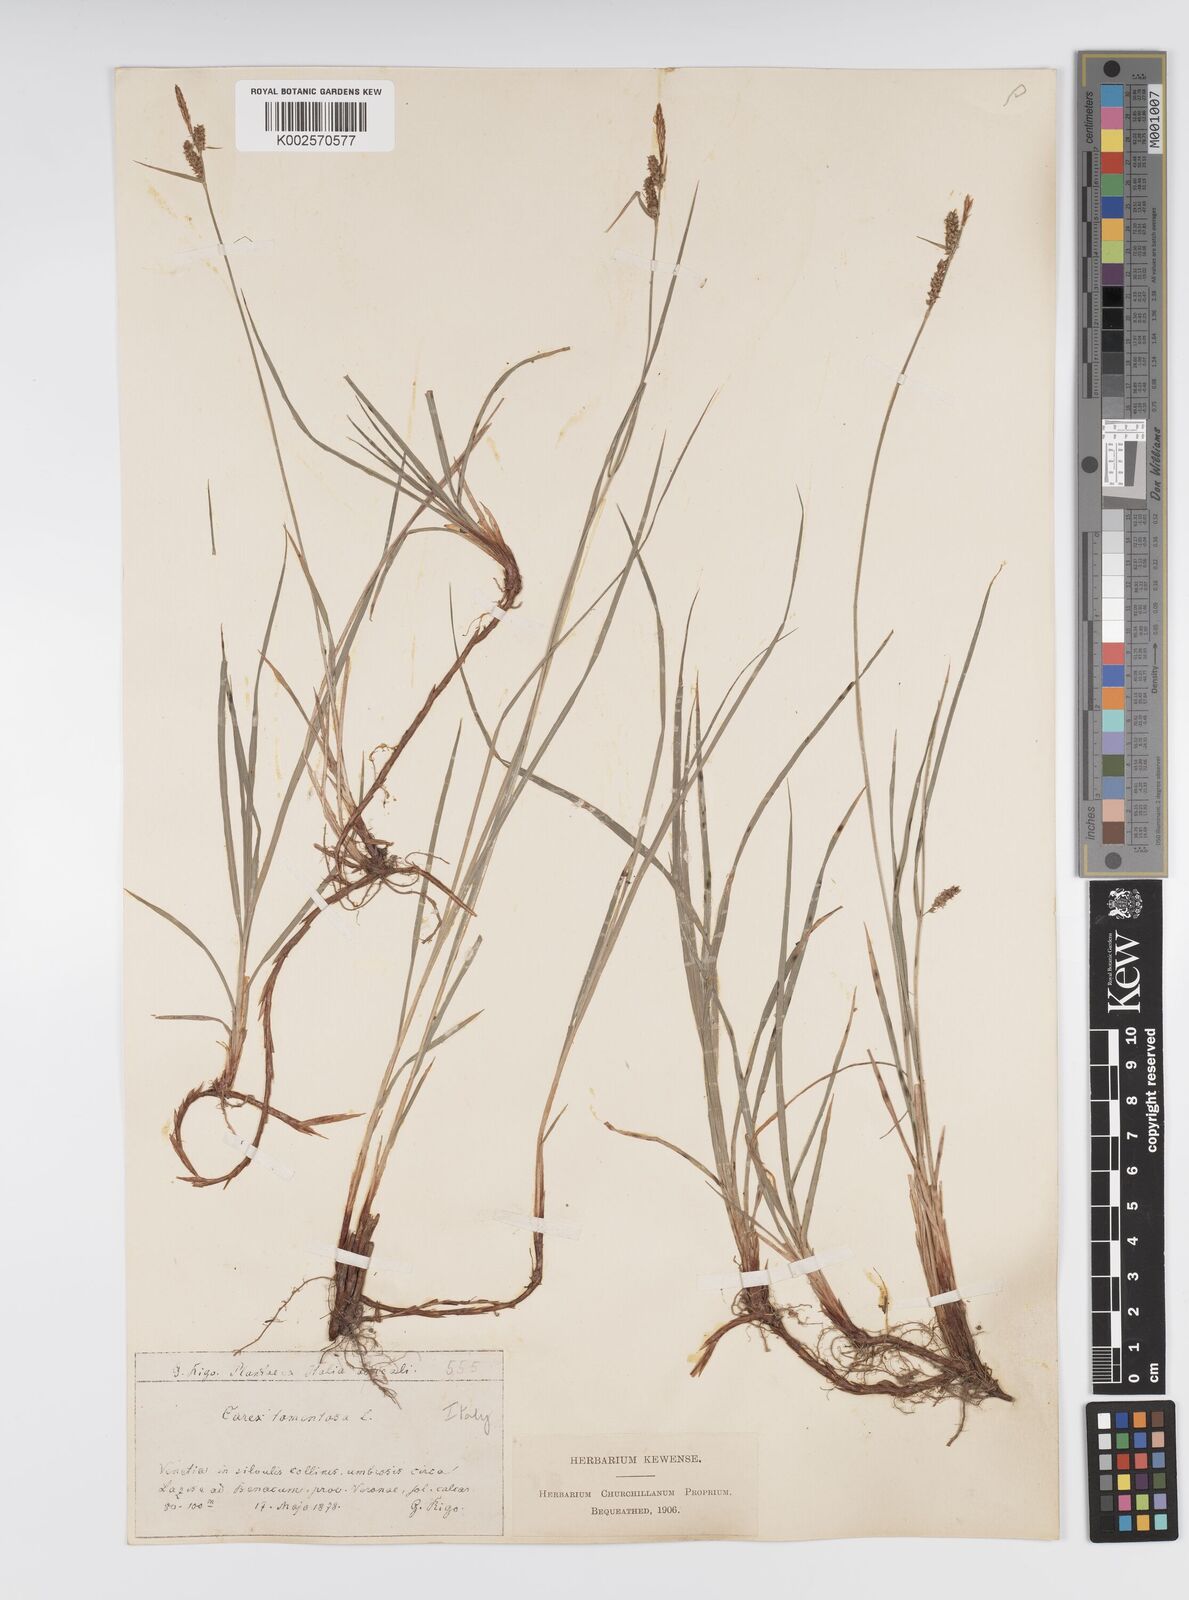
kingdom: Plantae
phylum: Tracheophyta
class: Liliopsida
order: Poales
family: Cyperaceae
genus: Carex
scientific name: Carex montana
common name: Soft-leaved sedge
